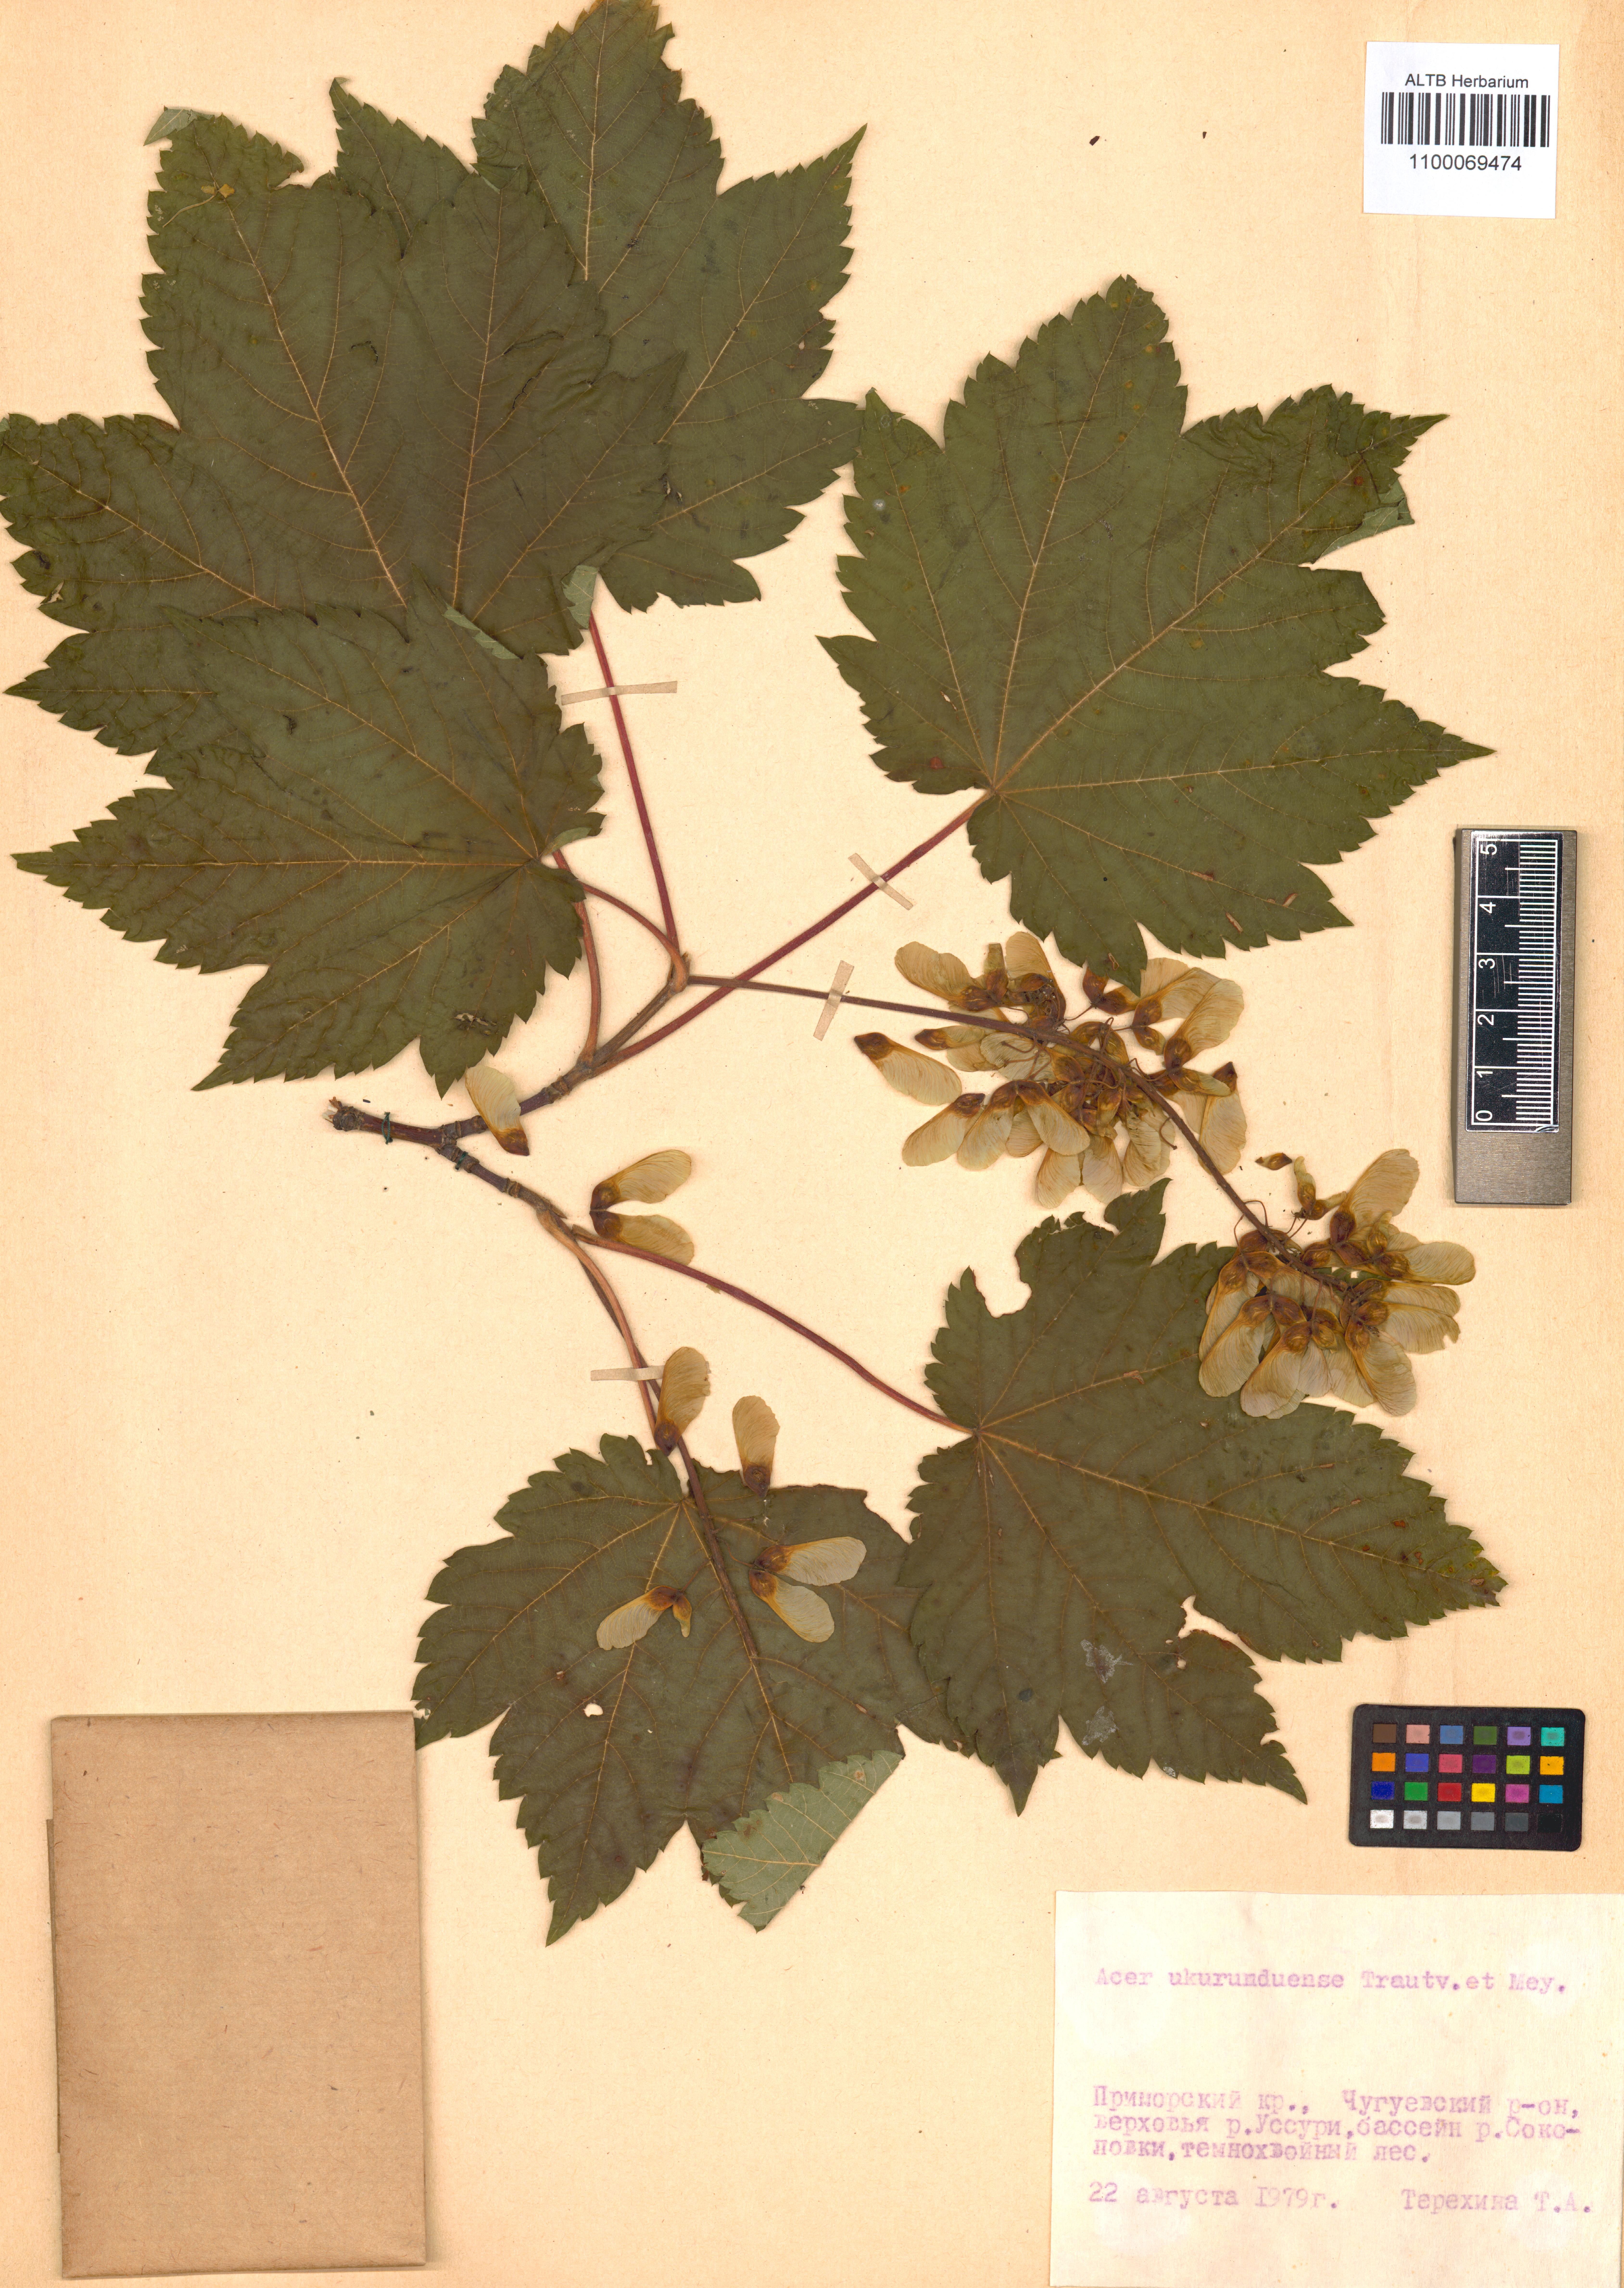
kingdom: Plantae
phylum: Tracheophyta
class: Magnoliopsida
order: Sapindales
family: Sapindaceae
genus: Acer
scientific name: Acer ukurunduense
